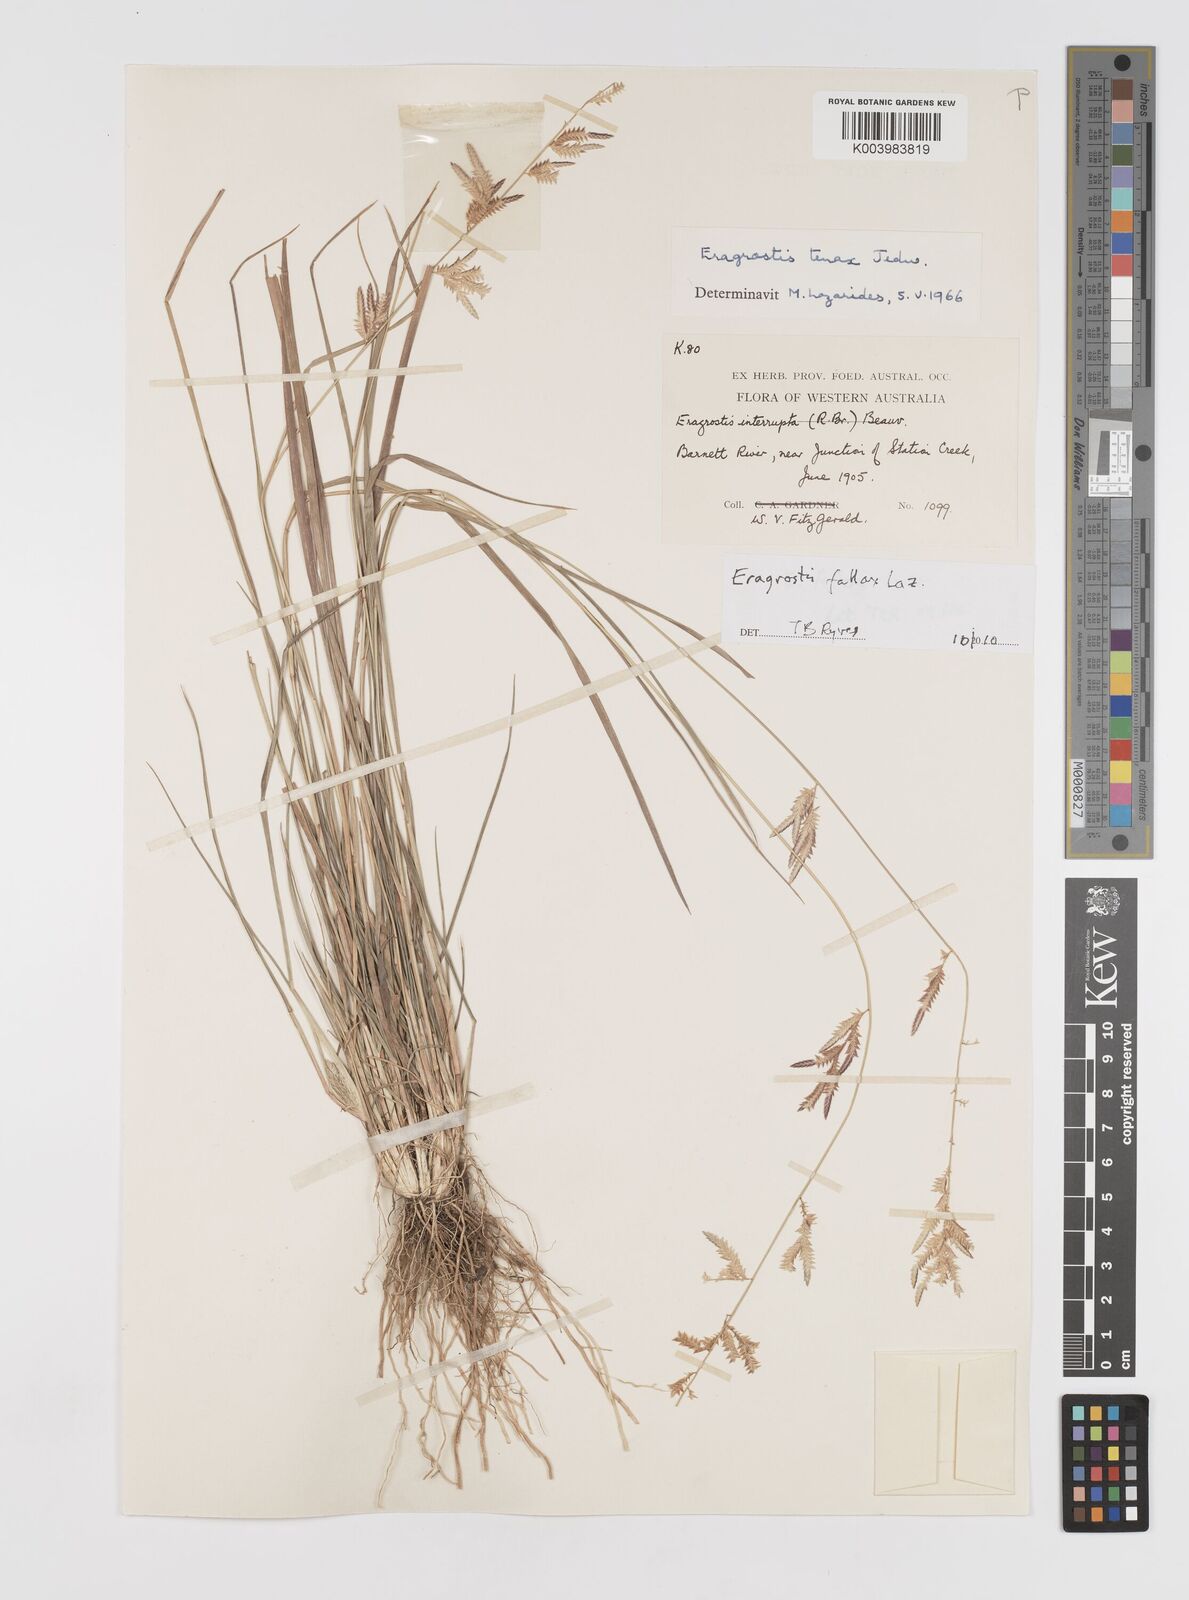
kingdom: Plantae
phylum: Tracheophyta
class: Liliopsida
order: Poales
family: Poaceae
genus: Eragrostis
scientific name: Eragrostis fallax
